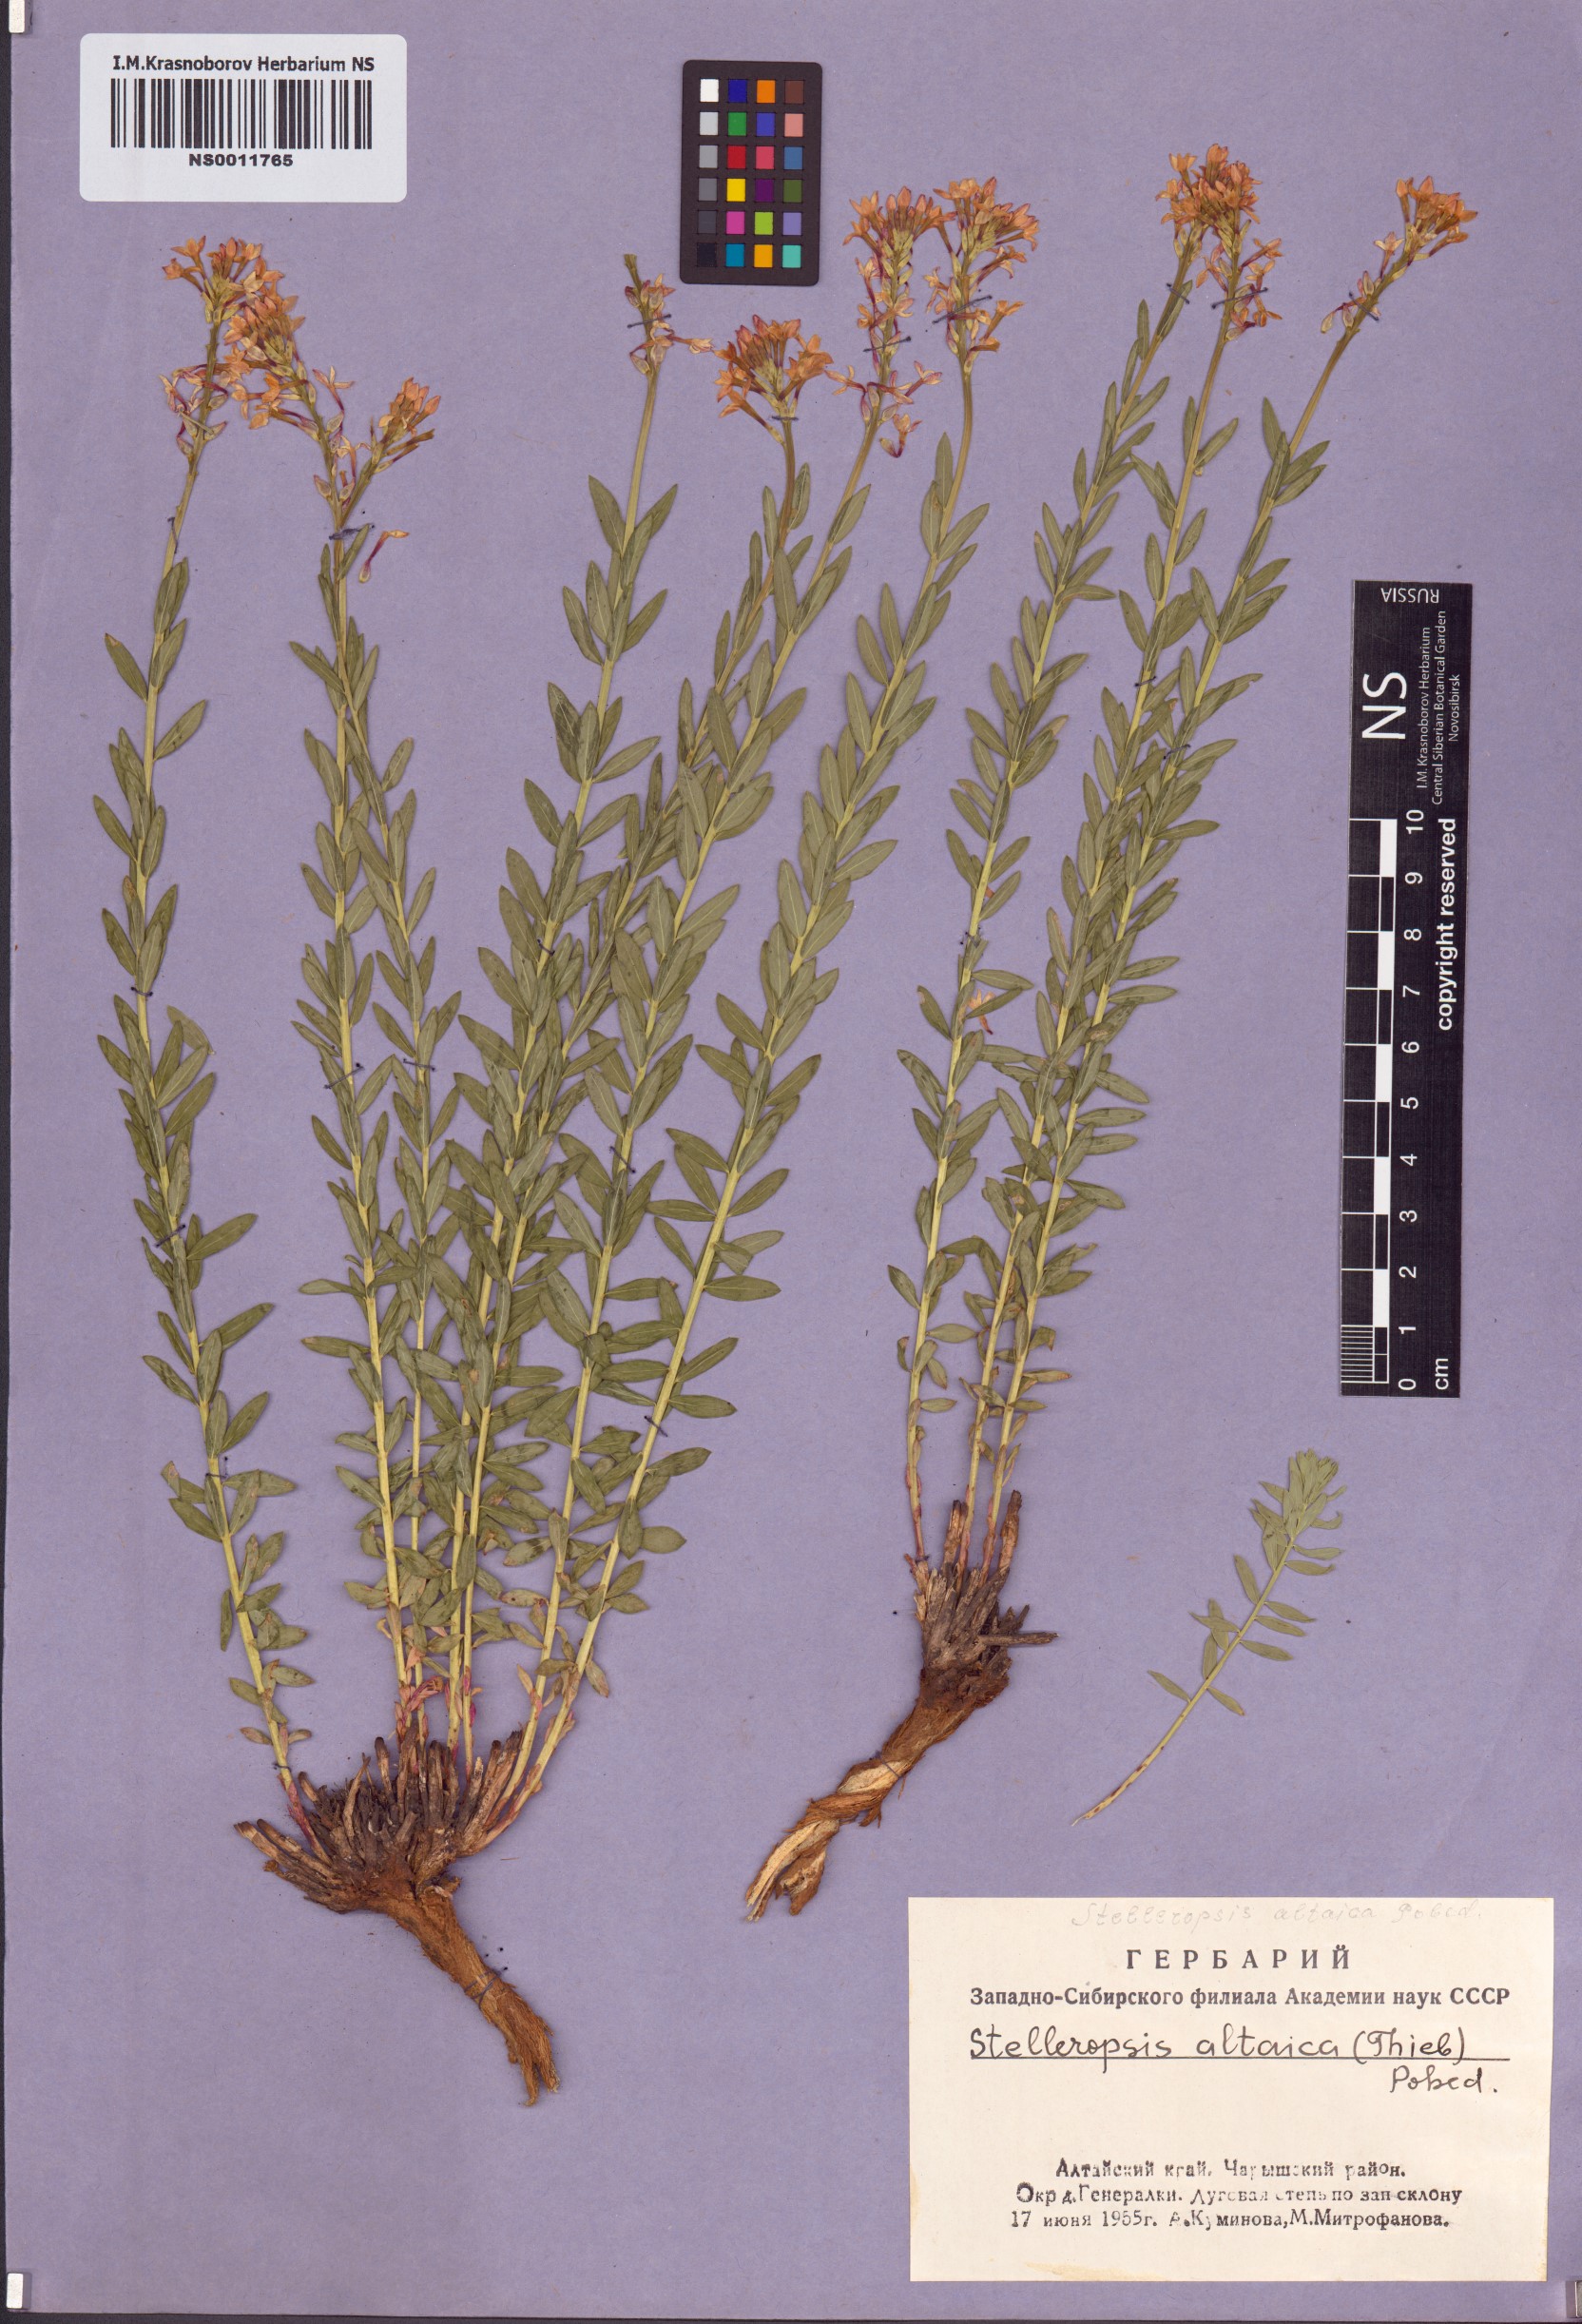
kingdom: Plantae
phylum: Tracheophyta
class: Magnoliopsida
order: Malvales
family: Thymelaeaceae
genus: Diarthron
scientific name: Diarthron altaicum
